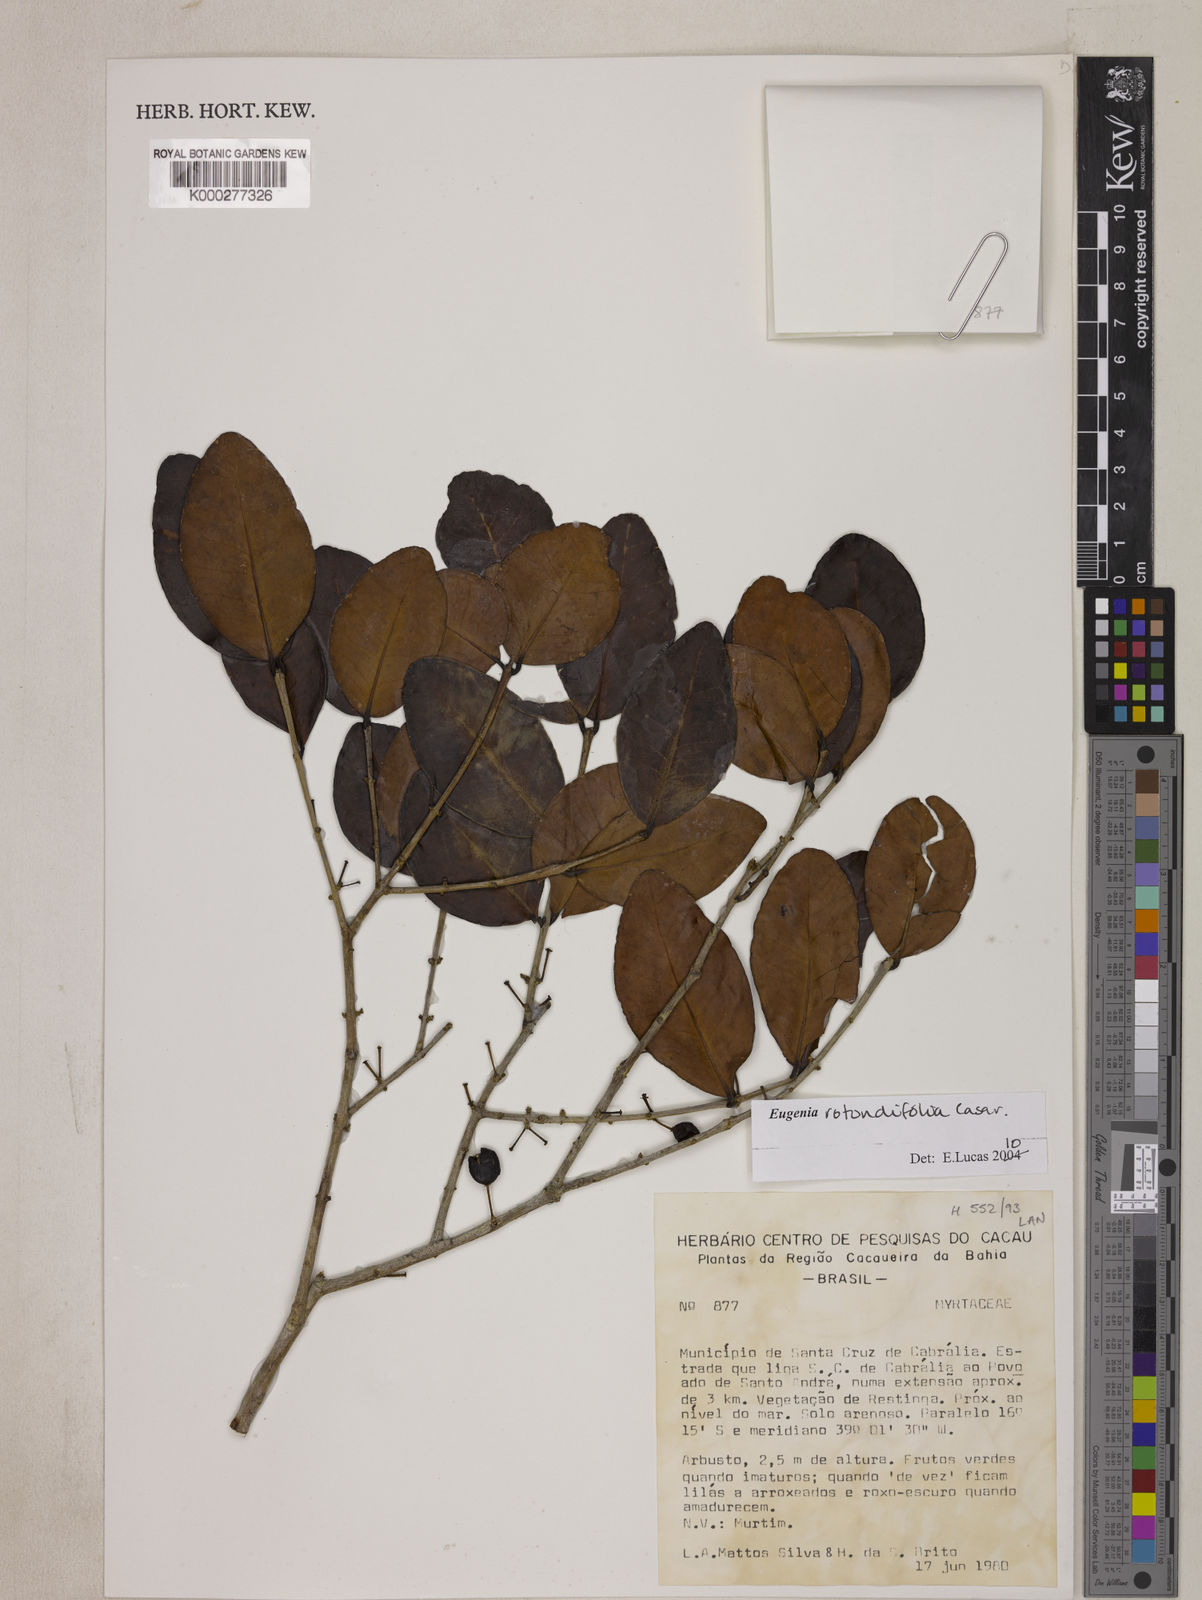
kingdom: Plantae
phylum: Tracheophyta
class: Magnoliopsida
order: Myrtales
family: Myrtaceae
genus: Eugenia
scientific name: Eugenia umbelliflora
